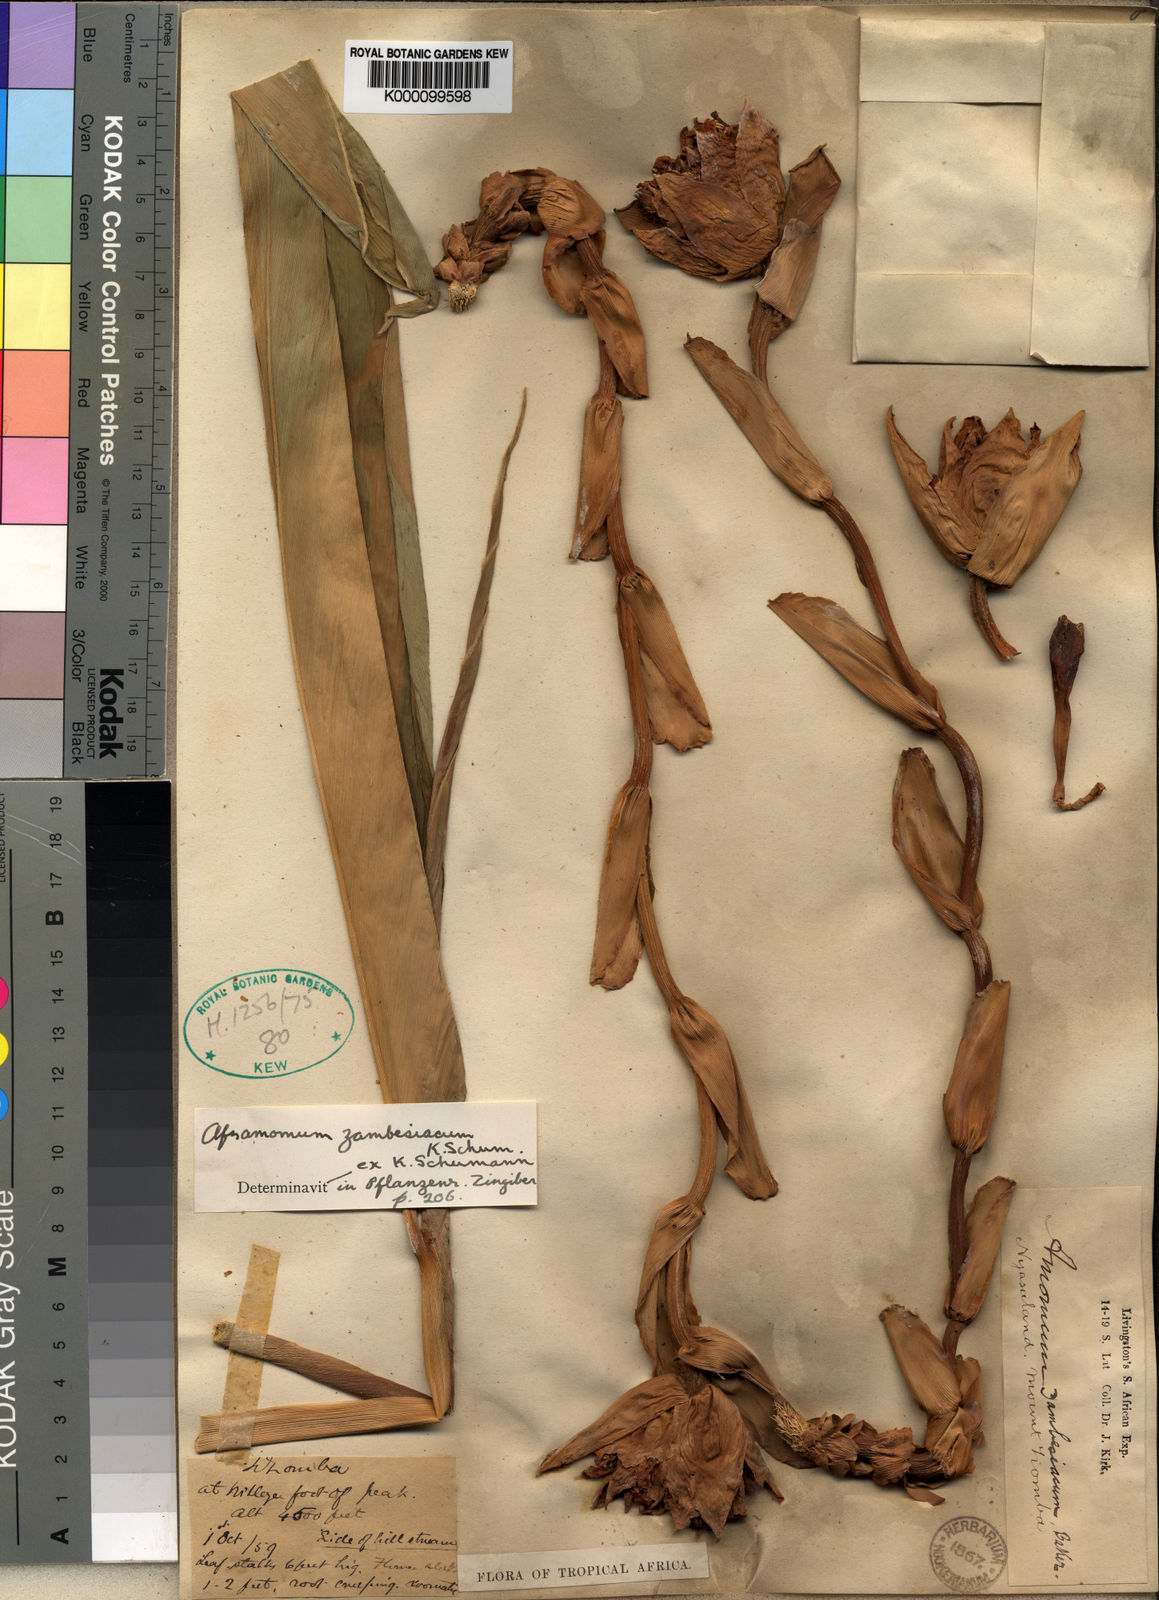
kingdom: Plantae
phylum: Tracheophyta
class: Liliopsida
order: Zingiberales
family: Zingiberaceae
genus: Aframomum
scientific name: Aframomum zambesiacum
